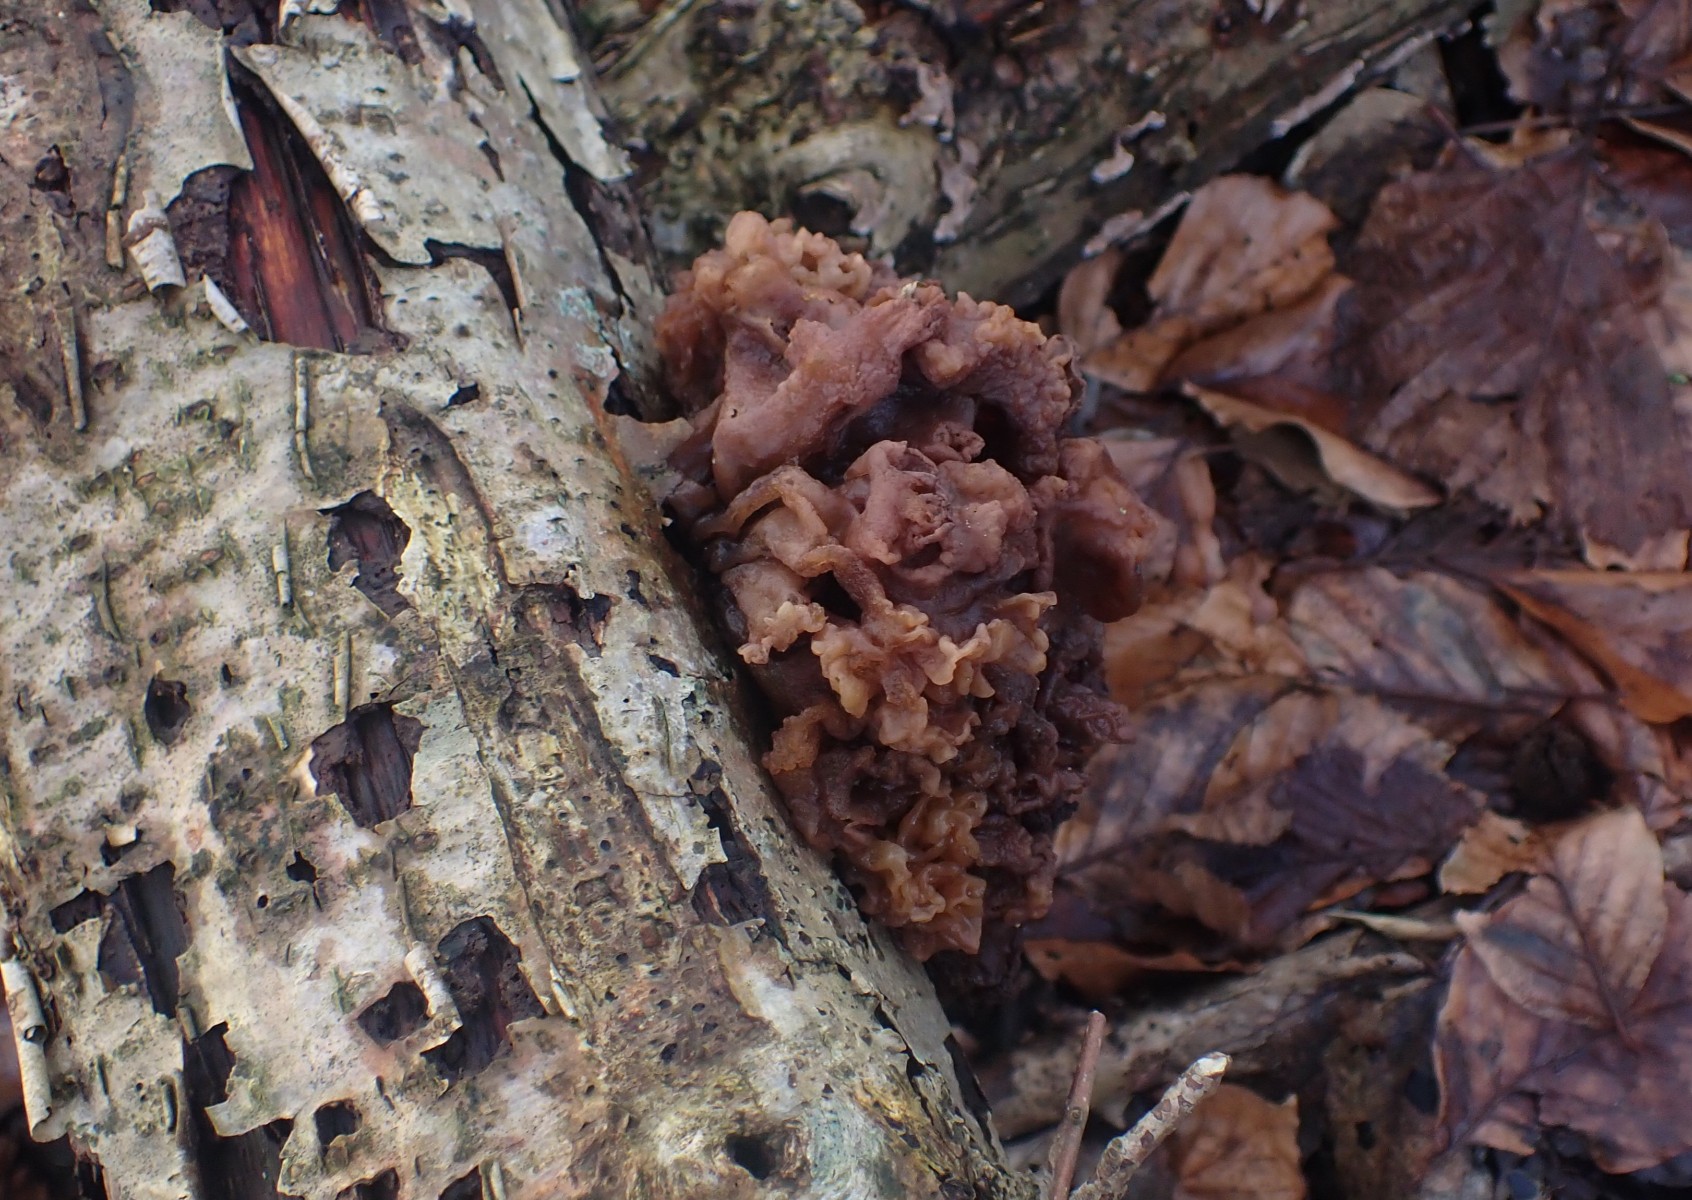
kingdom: Fungi
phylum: Basidiomycota
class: Tremellomycetes
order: Tremellales
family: Tremellaceae
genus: Phaeotremella
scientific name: Phaeotremella frondosa
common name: kæmpe-bævresvamp
